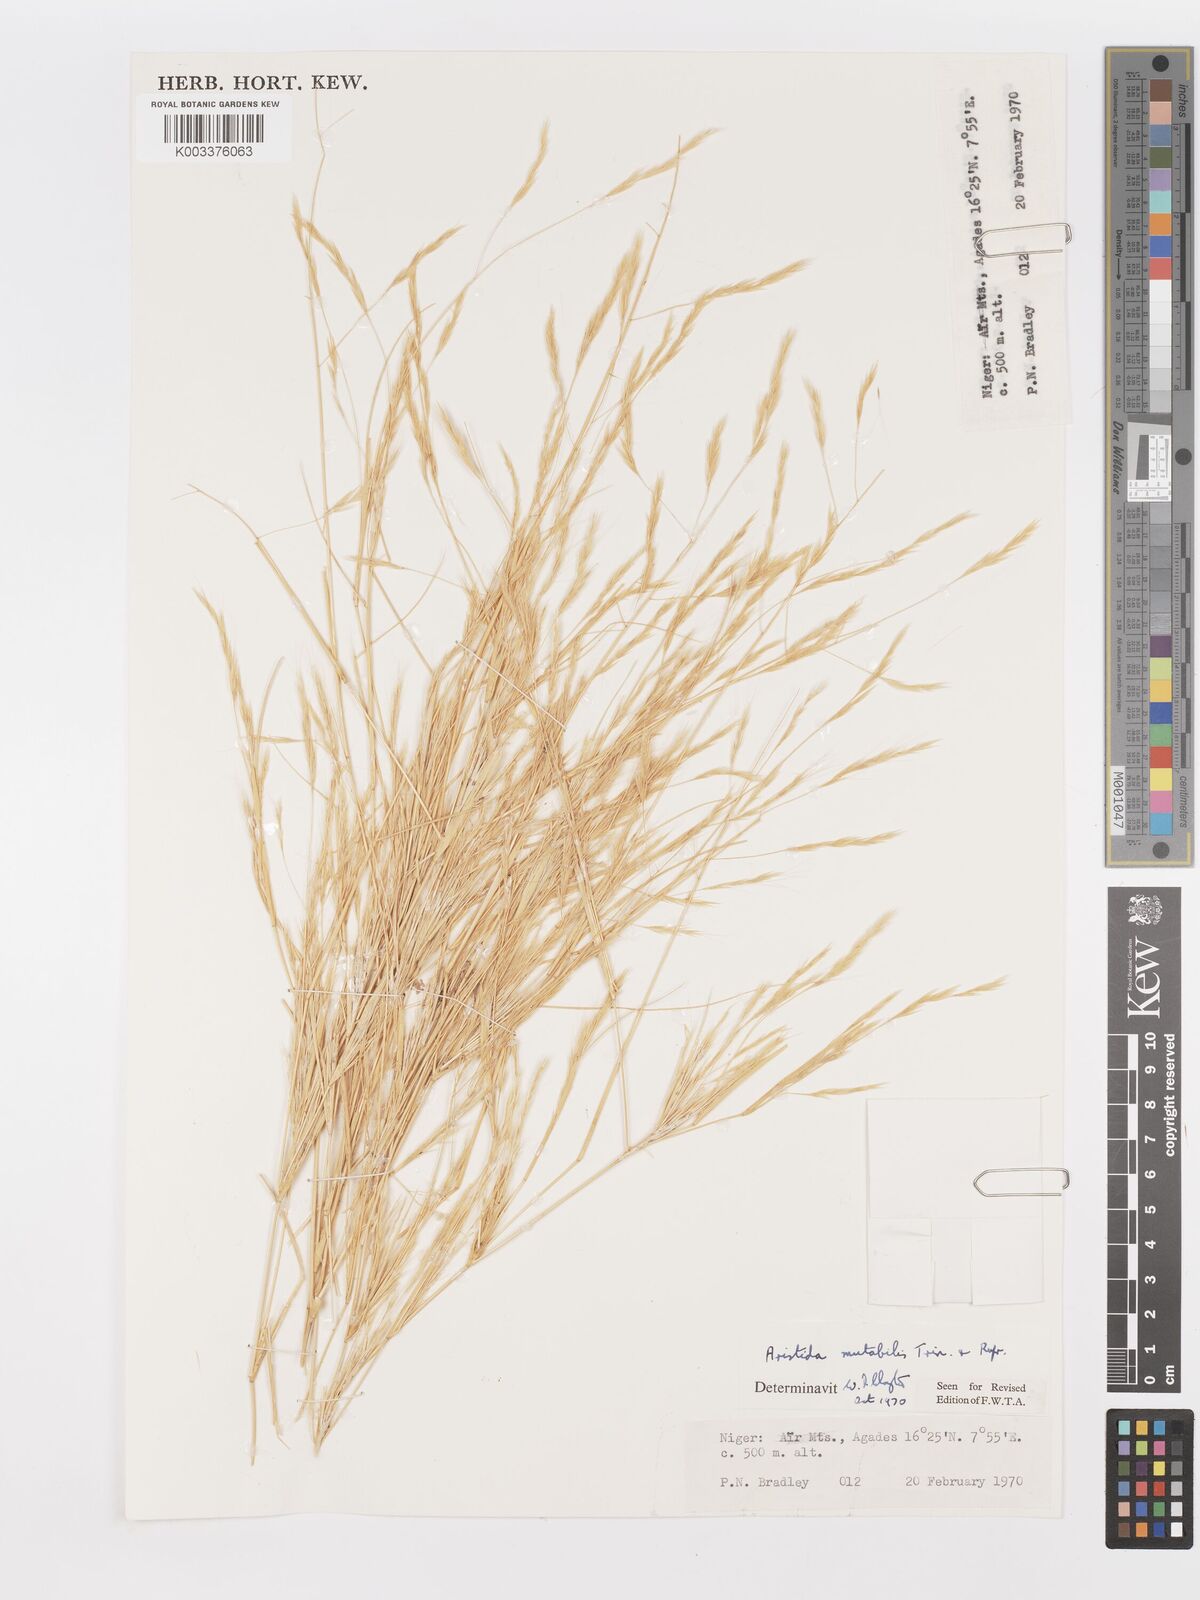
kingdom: Plantae
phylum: Tracheophyta
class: Liliopsida
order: Poales
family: Poaceae
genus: Aristida
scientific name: Aristida mutabilis
